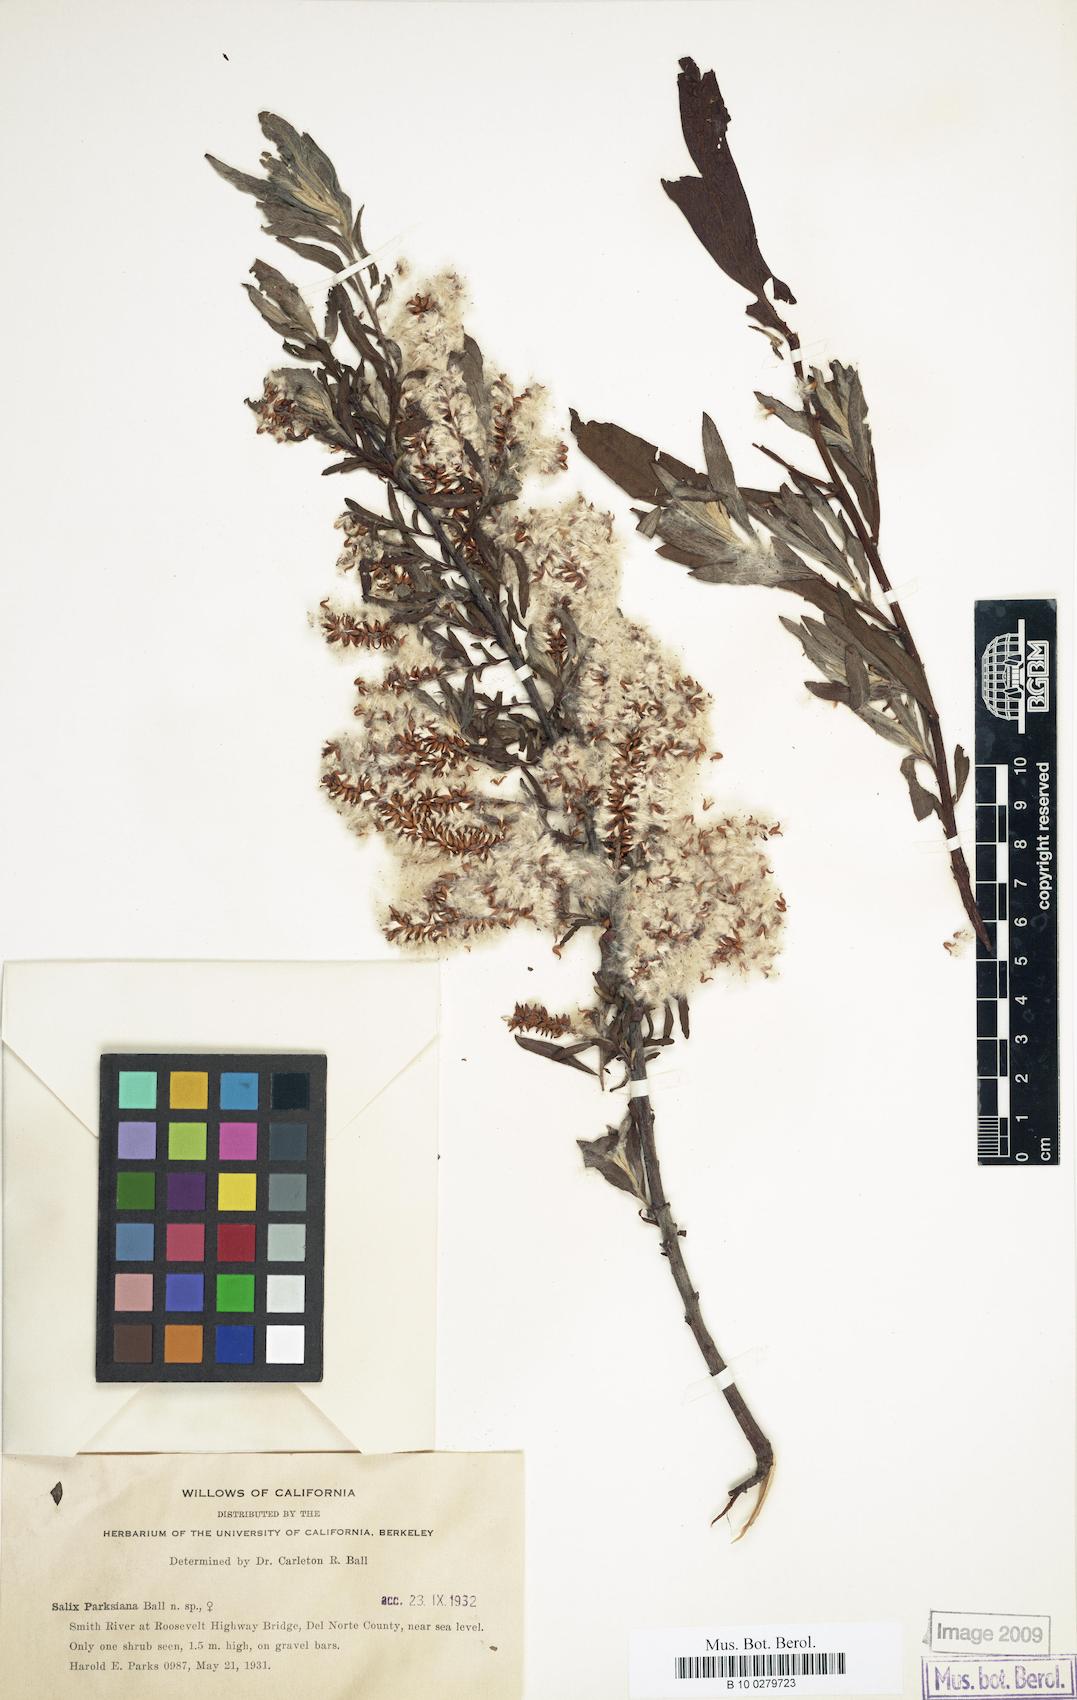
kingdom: Plantae
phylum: Tracheophyta
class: Magnoliopsida
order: Malpighiales
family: Salicaceae
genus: Salix
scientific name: Salix melanopsis
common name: Dusky willow
